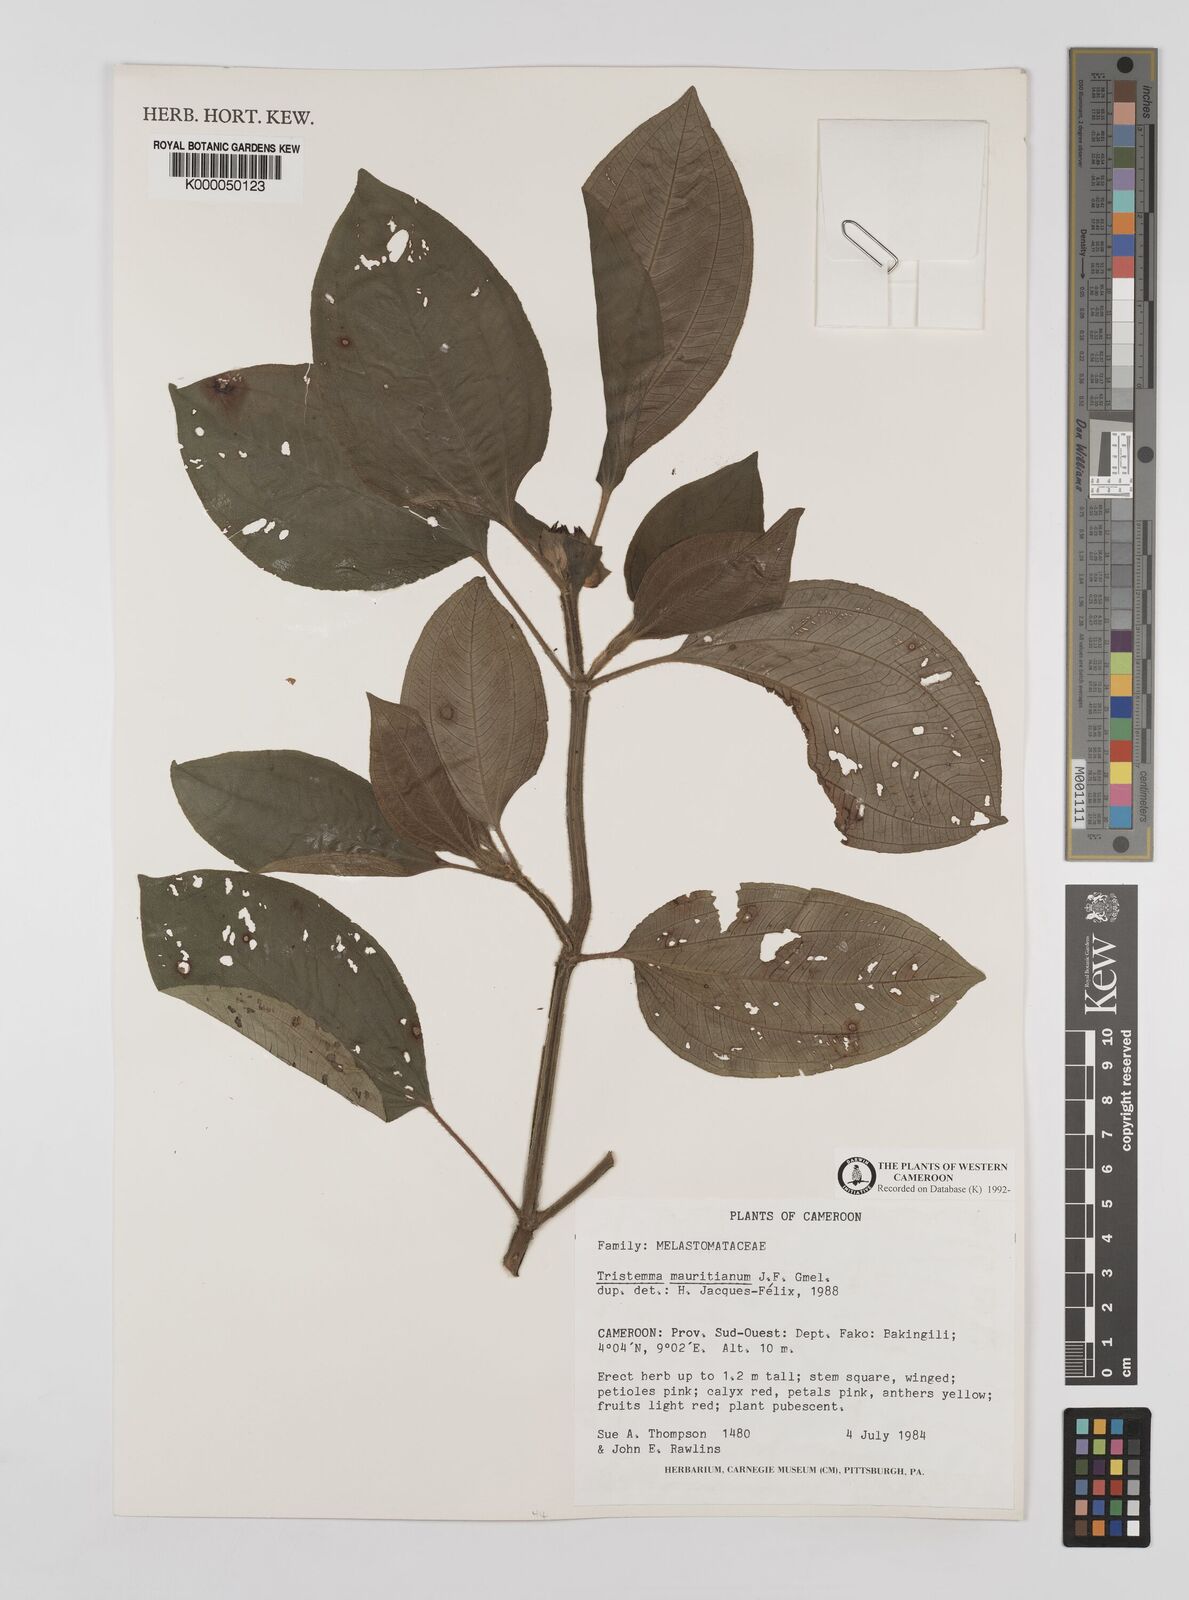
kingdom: Plantae
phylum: Tracheophyta
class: Magnoliopsida
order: Myrtales
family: Melastomataceae
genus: Tristemma
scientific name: Tristemma
